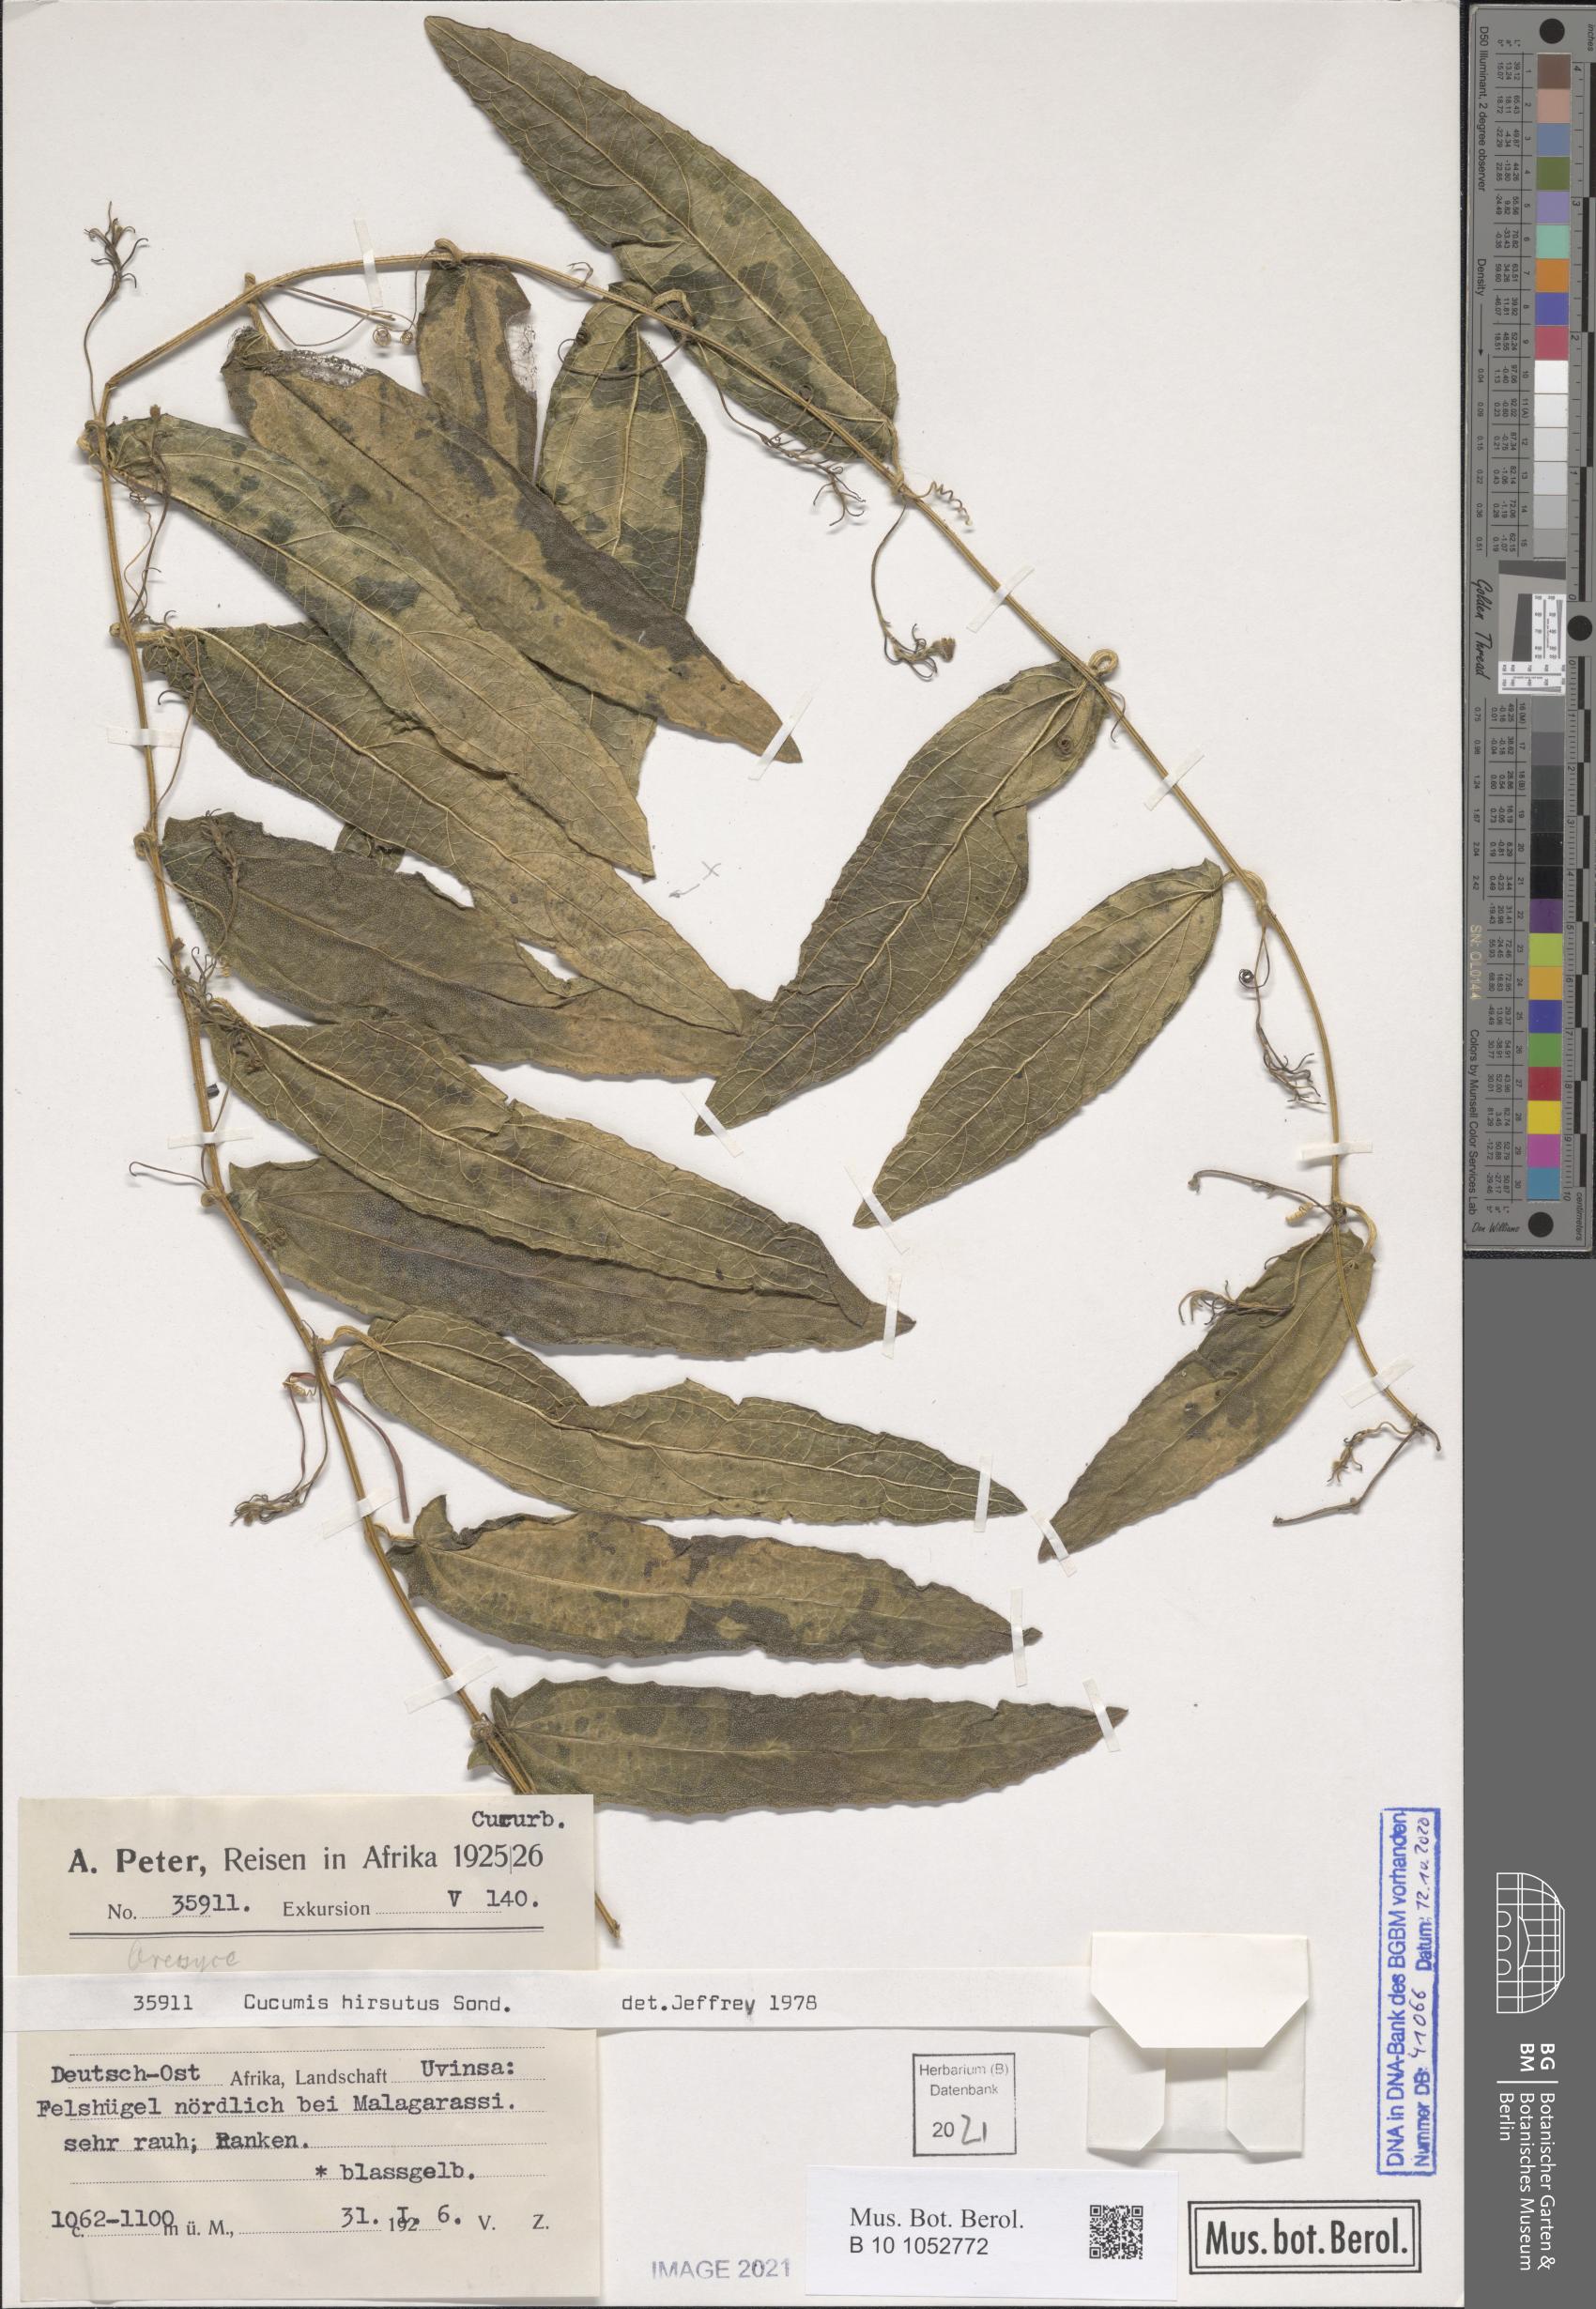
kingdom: Plantae
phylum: Tracheophyta
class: Magnoliopsida
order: Cucurbitales
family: Cucurbitaceae
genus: Cucumis
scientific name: Cucumis hirsutus
